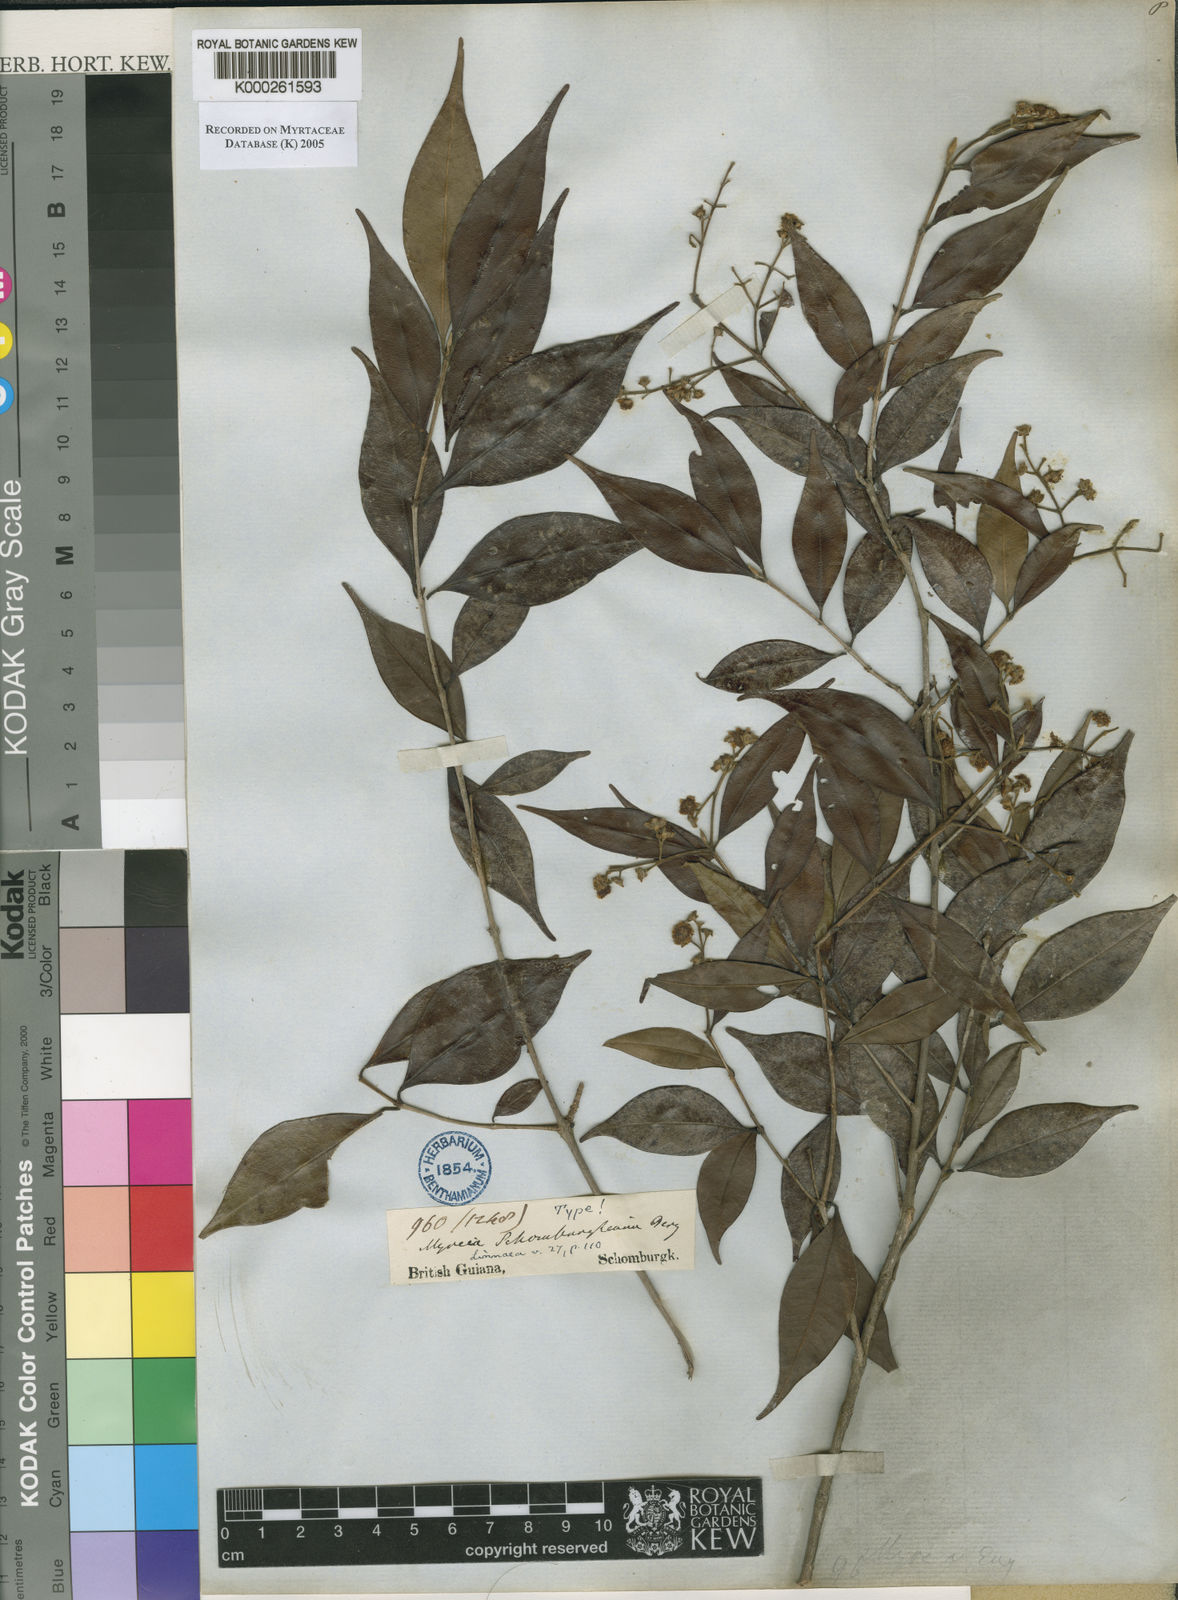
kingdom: Plantae
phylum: Tracheophyta
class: Magnoliopsida
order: Myrtales
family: Myrtaceae
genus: Myrcia
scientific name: Myrcia servata
